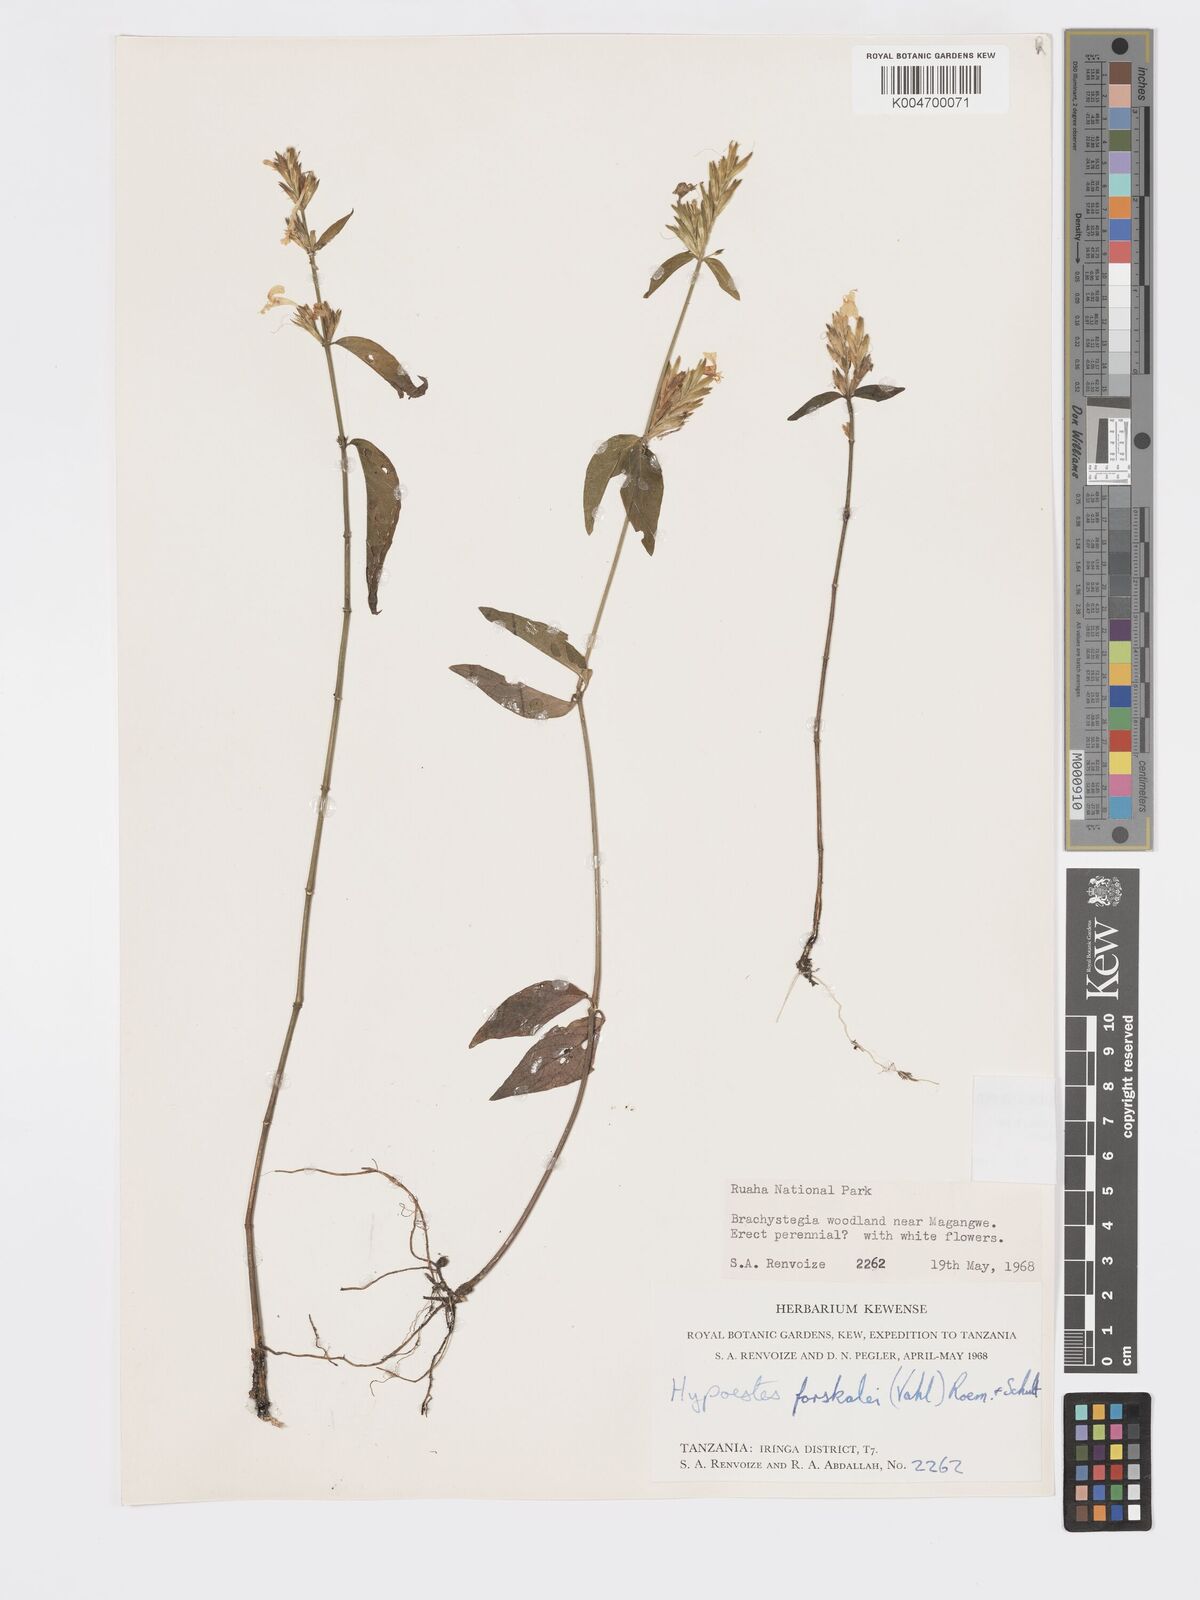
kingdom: Plantae
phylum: Tracheophyta
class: Magnoliopsida
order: Lamiales
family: Acanthaceae
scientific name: Acanthaceae
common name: Acanthaceae
